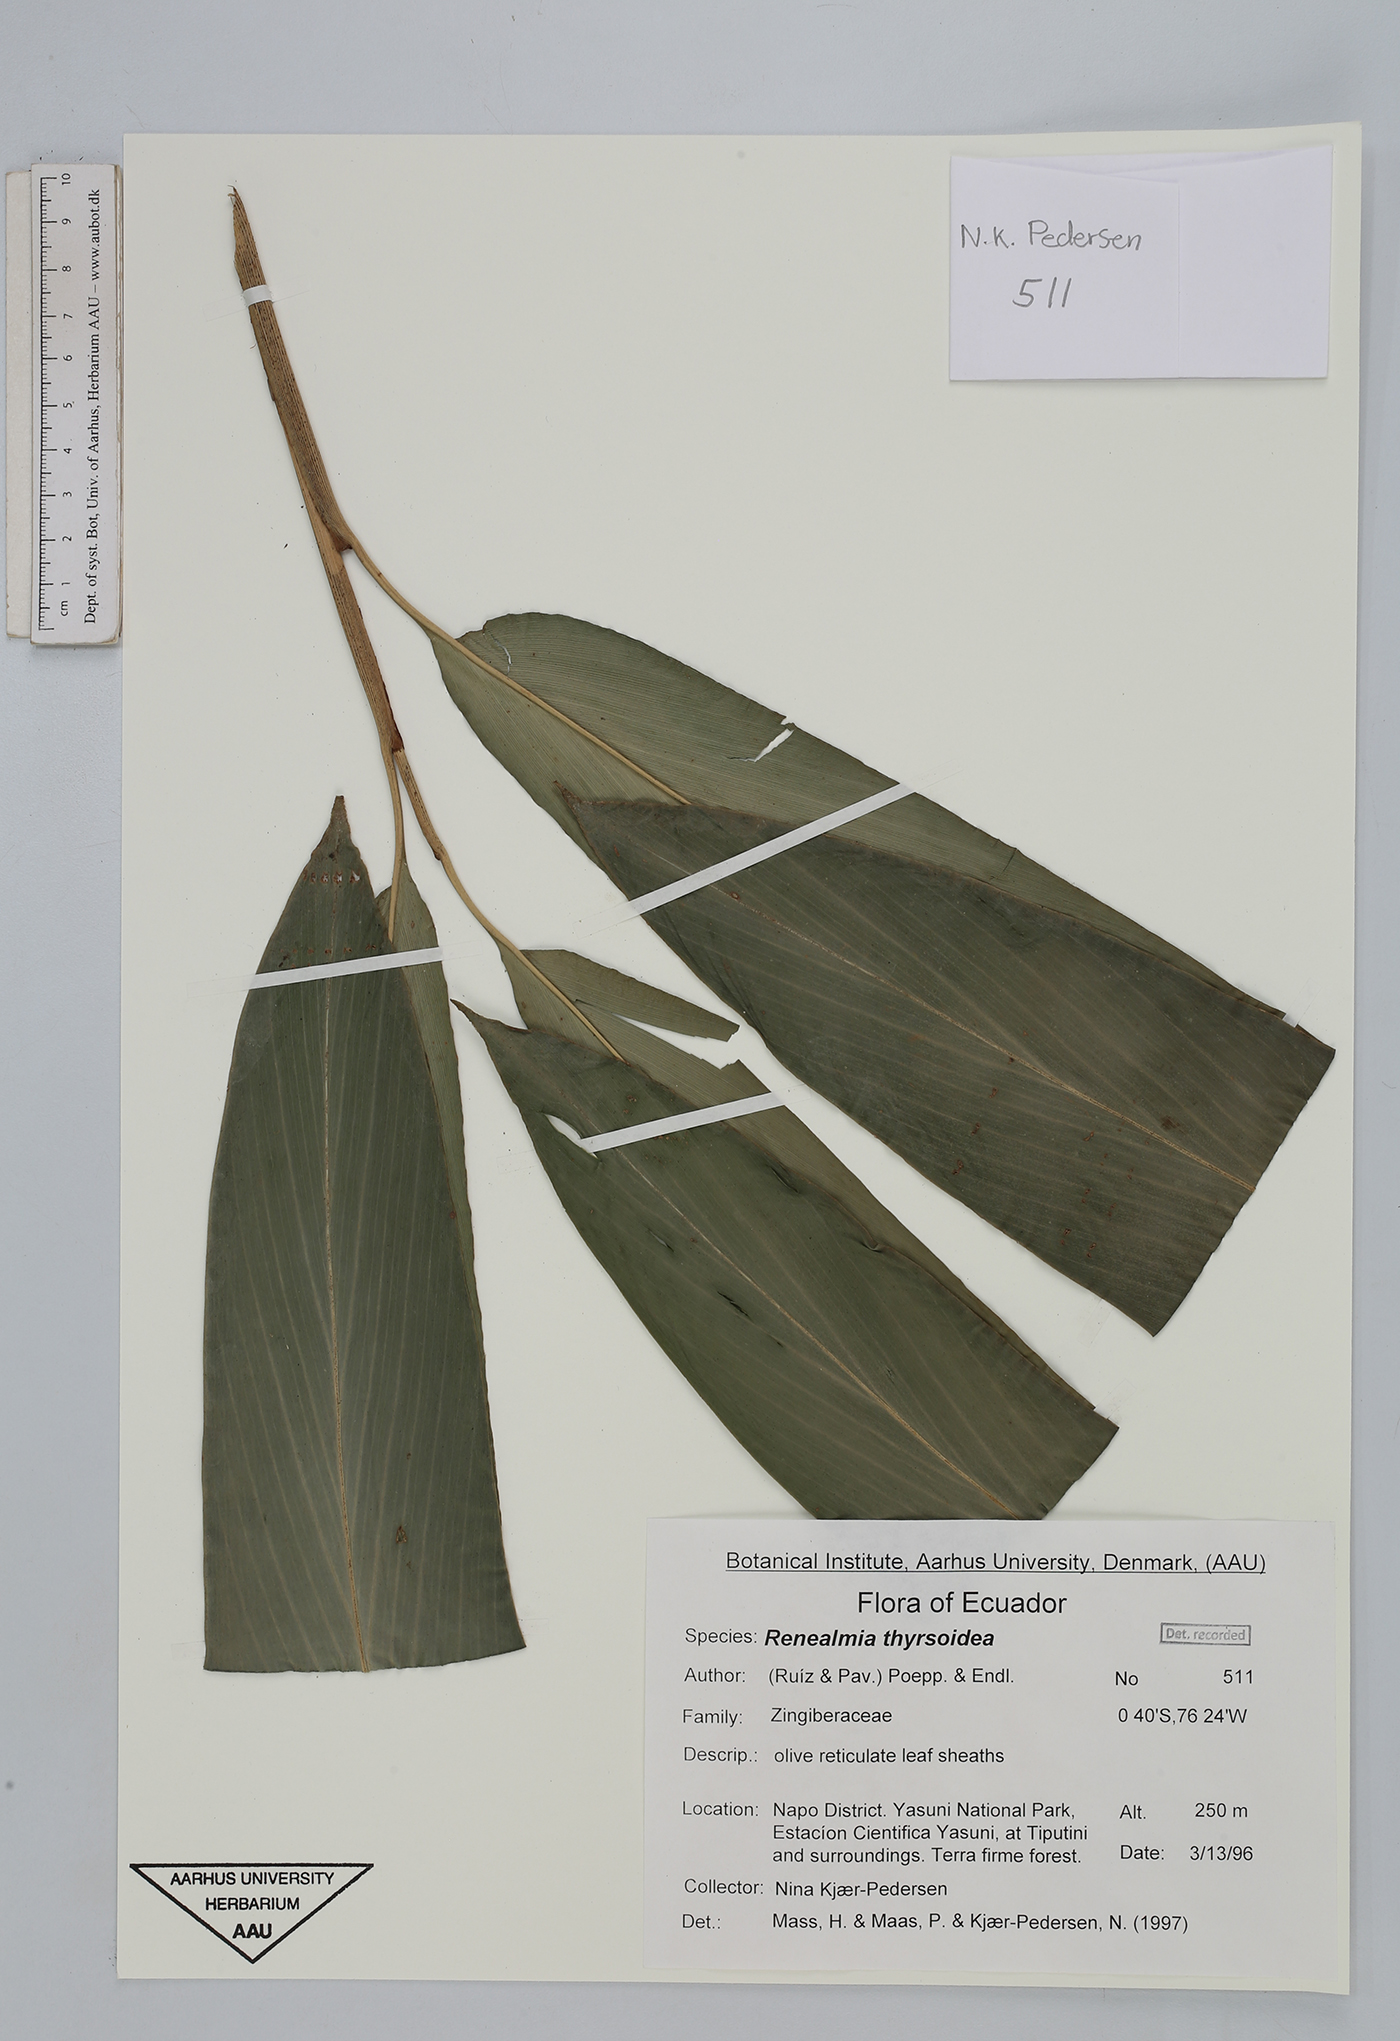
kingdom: Plantae
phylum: Tracheophyta
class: Liliopsida
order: Zingiberales
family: Zingiberaceae
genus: Renealmia
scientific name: Renealmia thyrsoidea
